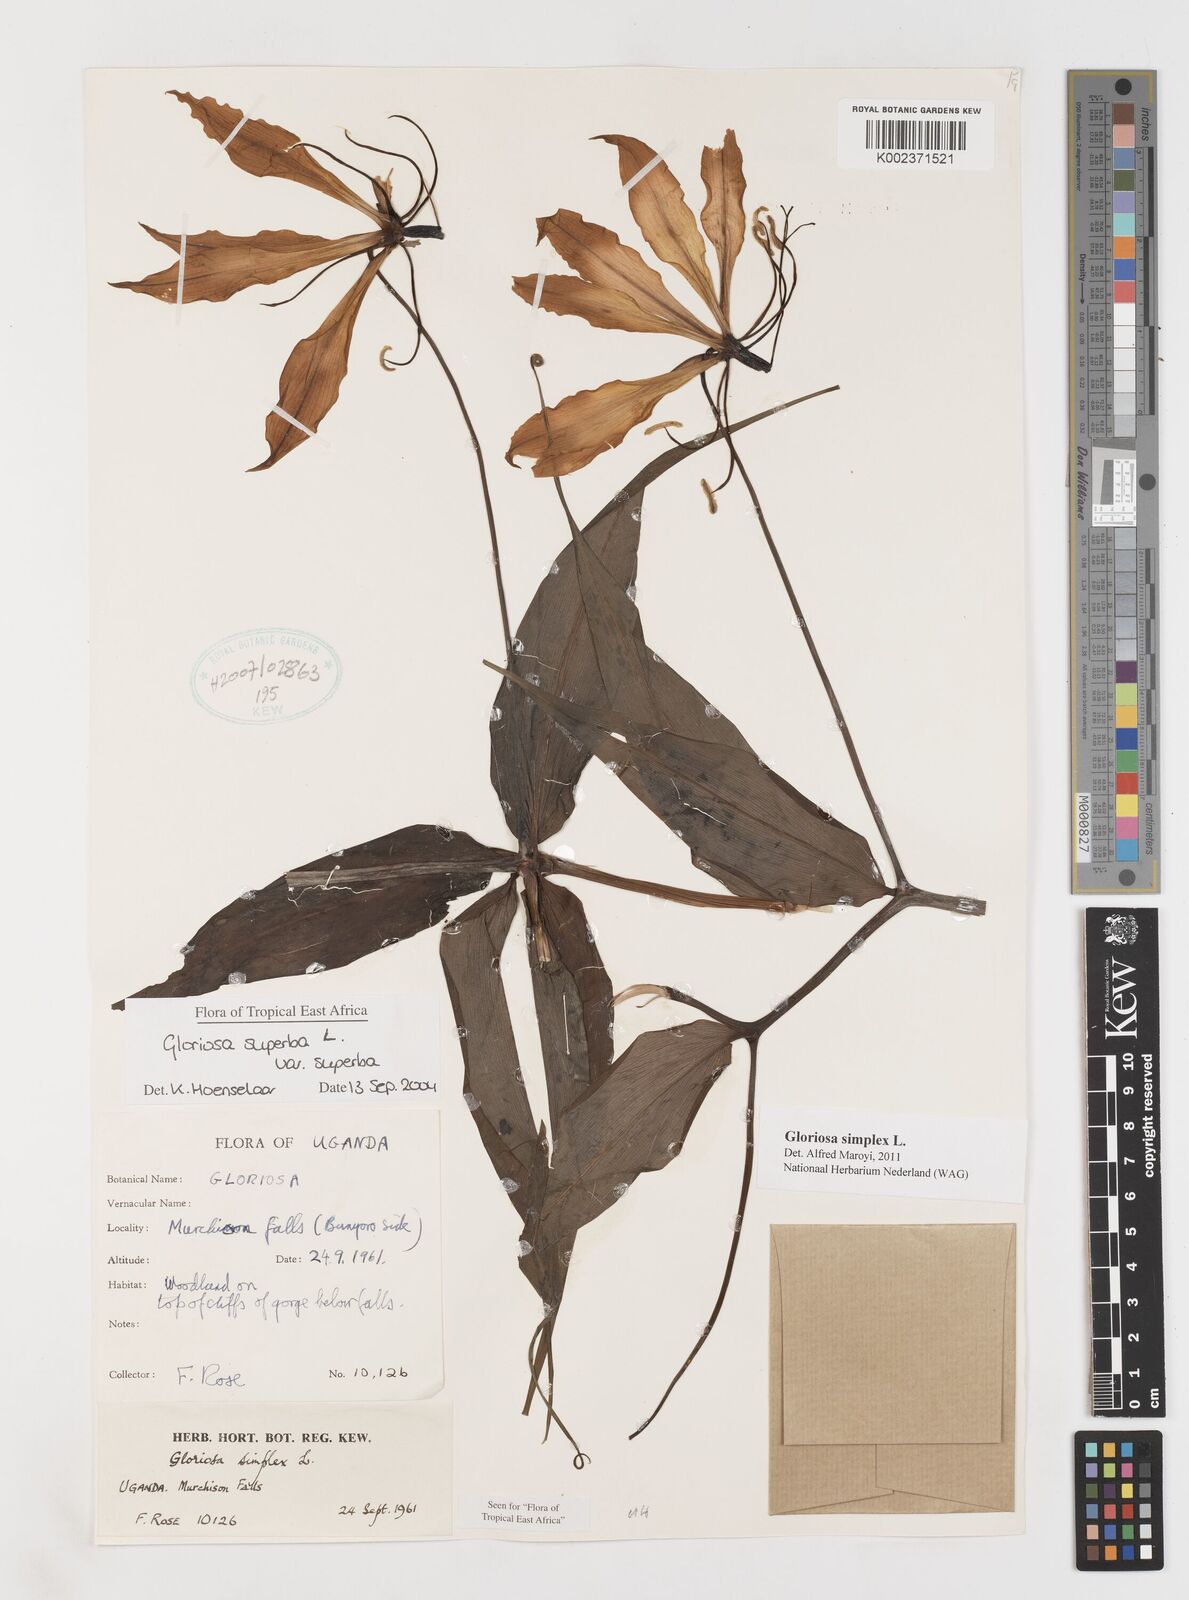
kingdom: Plantae
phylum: Tracheophyta
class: Liliopsida
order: Liliales
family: Colchicaceae
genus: Gloriosa
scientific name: Gloriosa simplex
